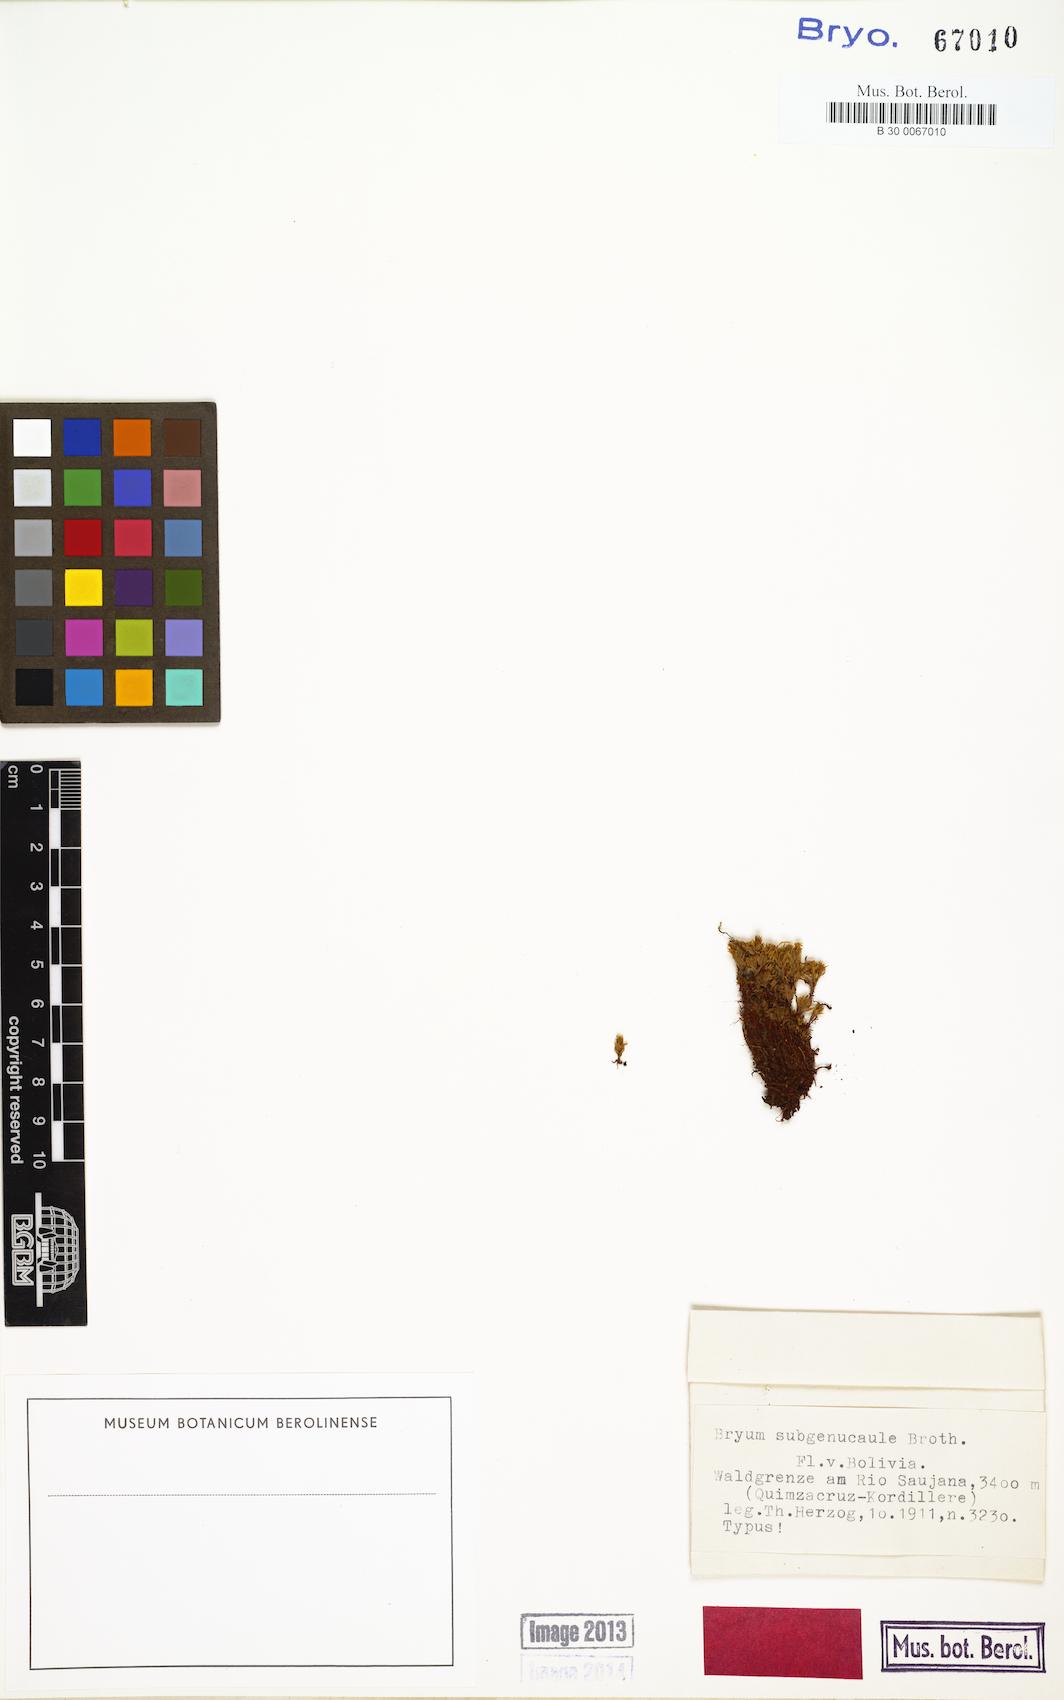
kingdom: Plantae
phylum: Bryophyta
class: Bryopsida
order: Bryales
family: Bryaceae
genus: Rosulabryum
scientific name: Rosulabryum andicola
